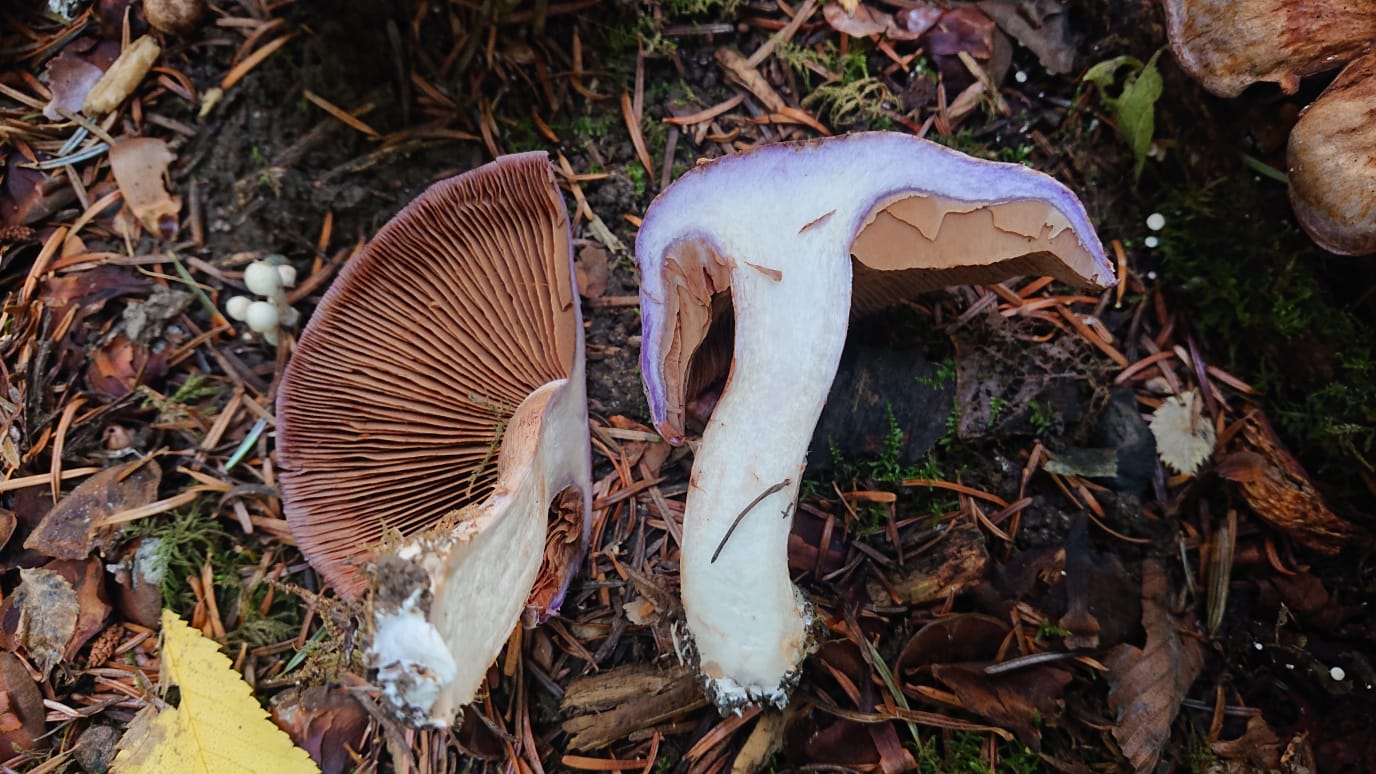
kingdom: Fungi
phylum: Basidiomycota
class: Agaricomycetes
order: Agaricales
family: Cortinariaceae
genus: Cortinarius
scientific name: Cortinarius largus
